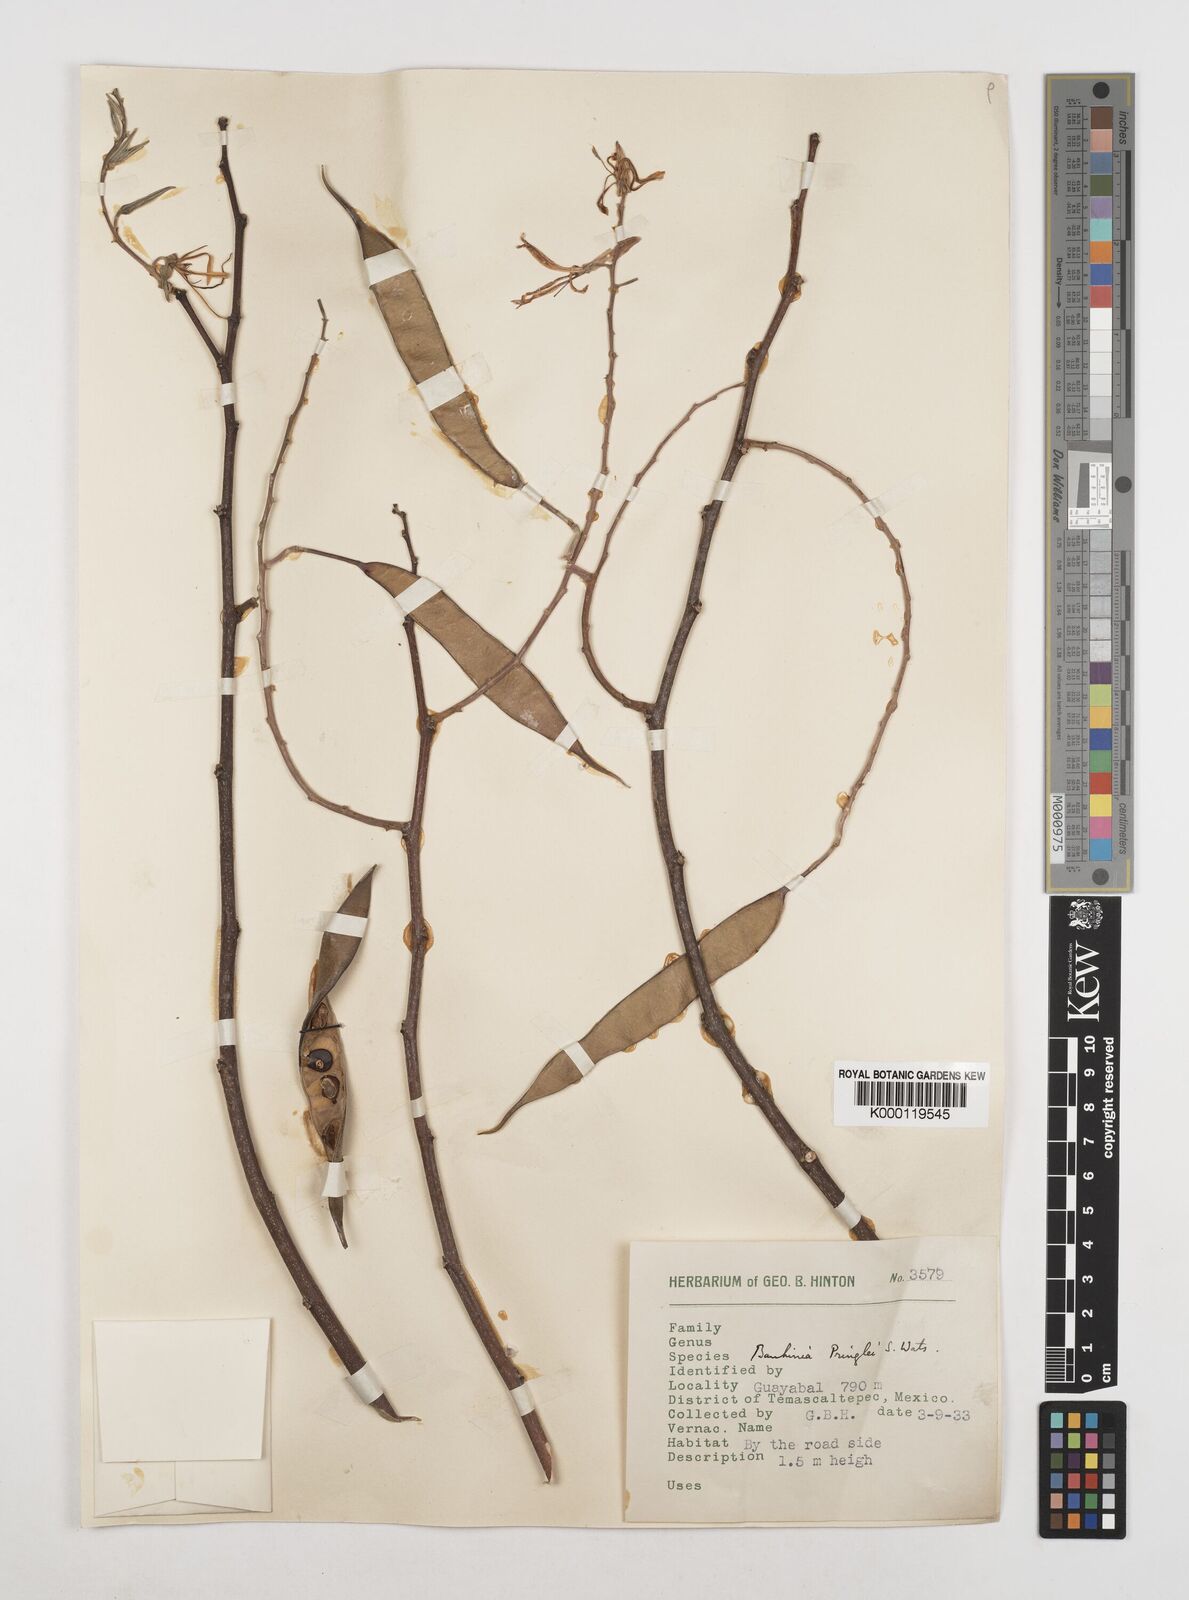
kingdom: Plantae
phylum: Tracheophyta
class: Magnoliopsida
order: Fabales
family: Fabaceae
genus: Bauhinia
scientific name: Bauhinia pringlei
